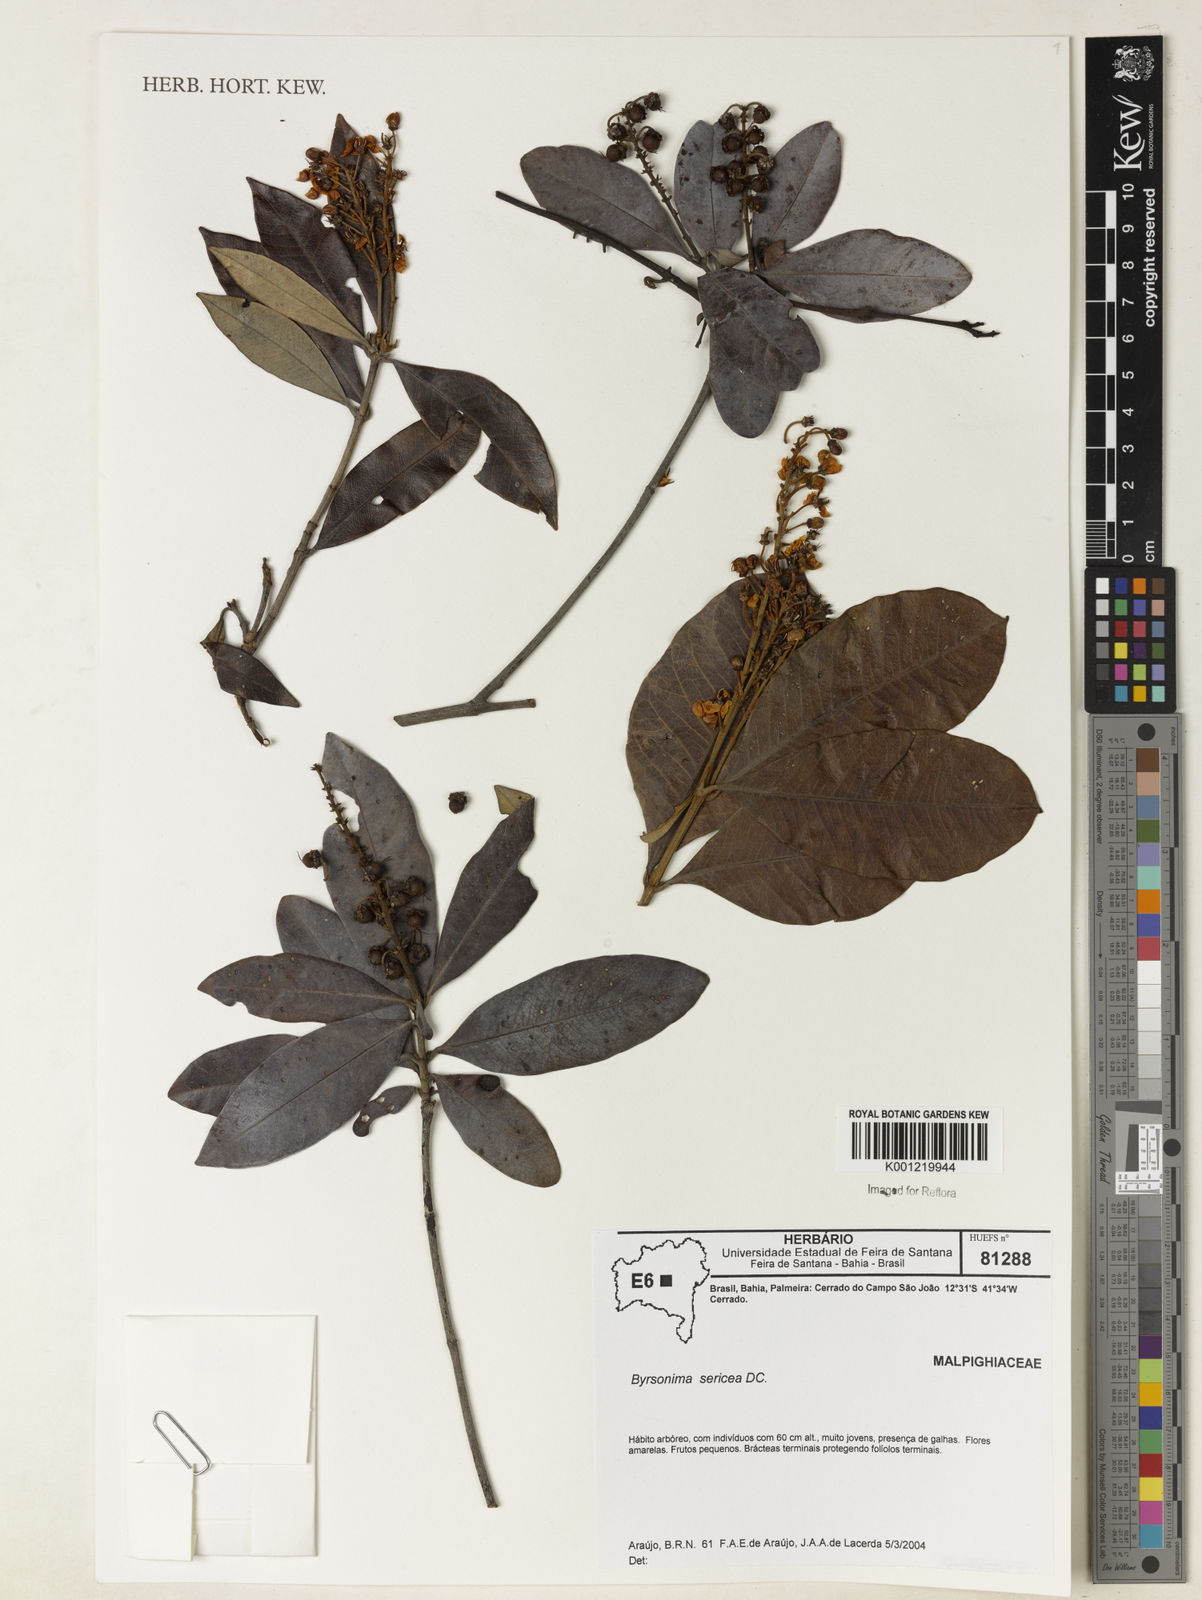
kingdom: Plantae
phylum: Tracheophyta
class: Magnoliopsida
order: Malpighiales
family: Malpighiaceae
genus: Byrsonima
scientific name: Byrsonima sericea
